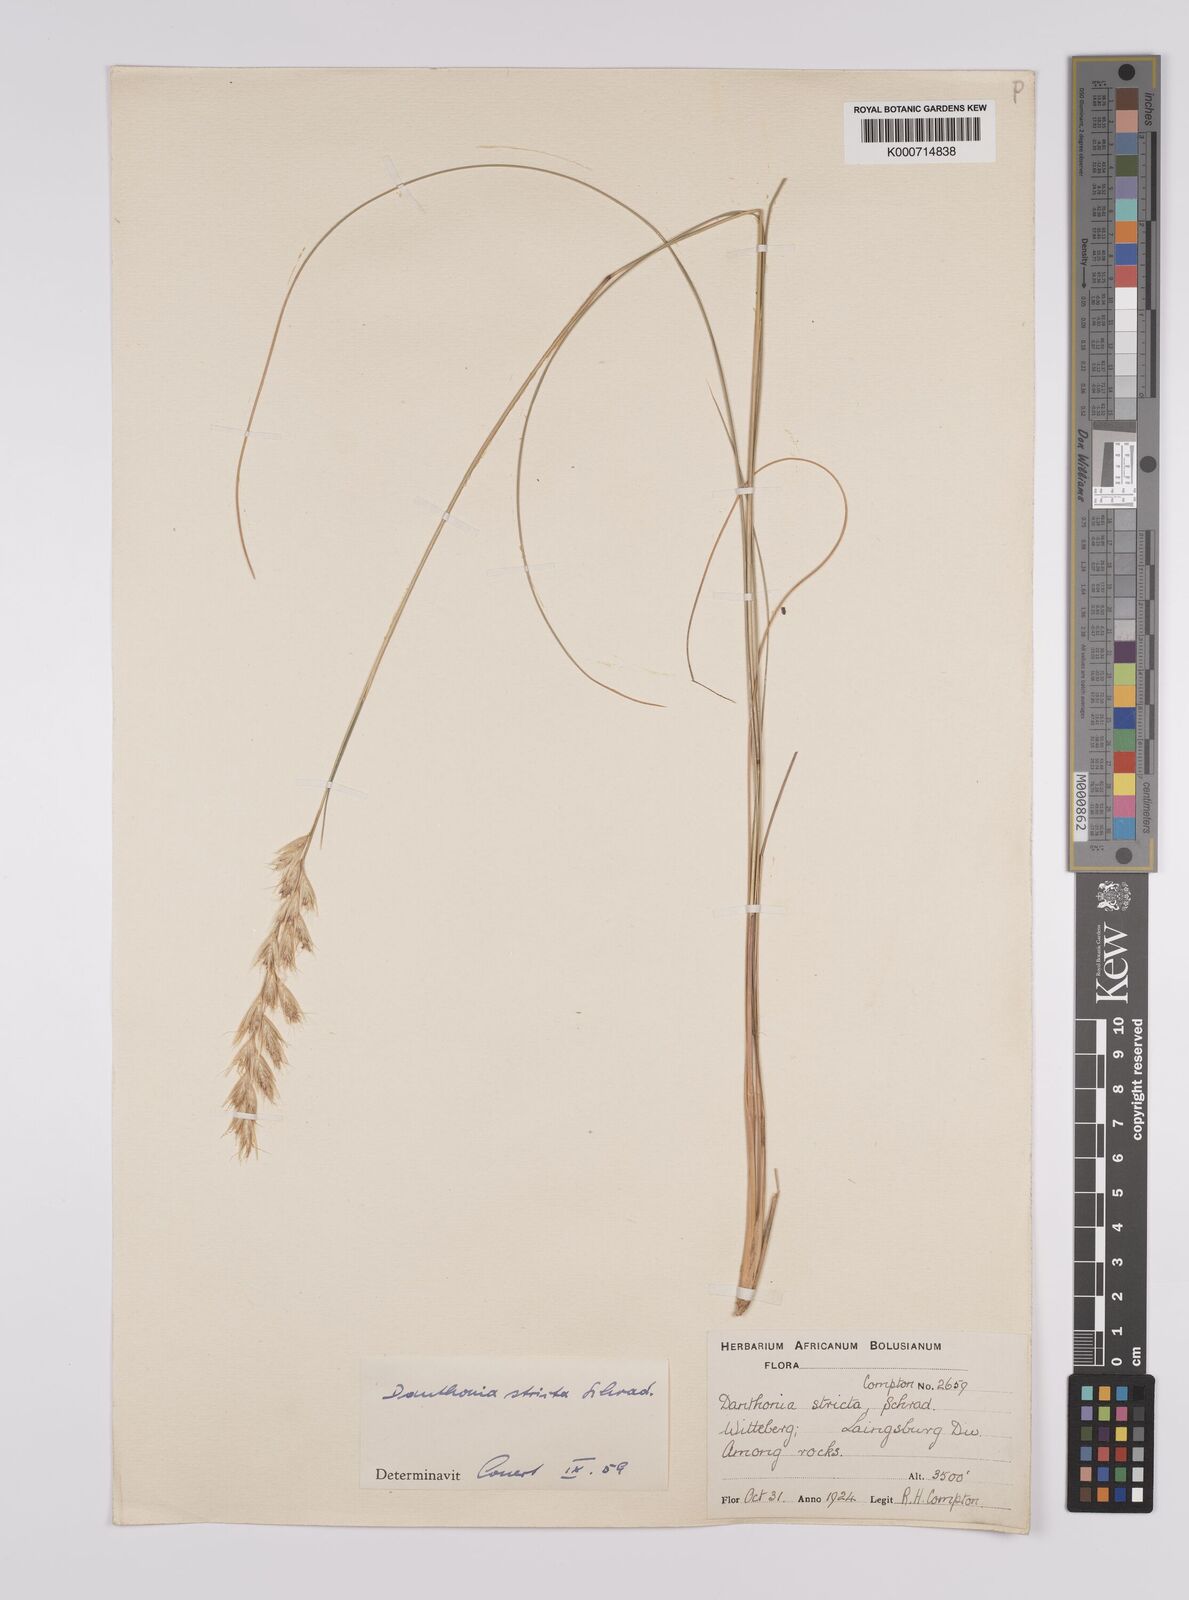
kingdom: Plantae
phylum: Tracheophyta
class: Liliopsida
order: Poales
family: Poaceae
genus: Rytidosperma
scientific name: Rytidosperma
